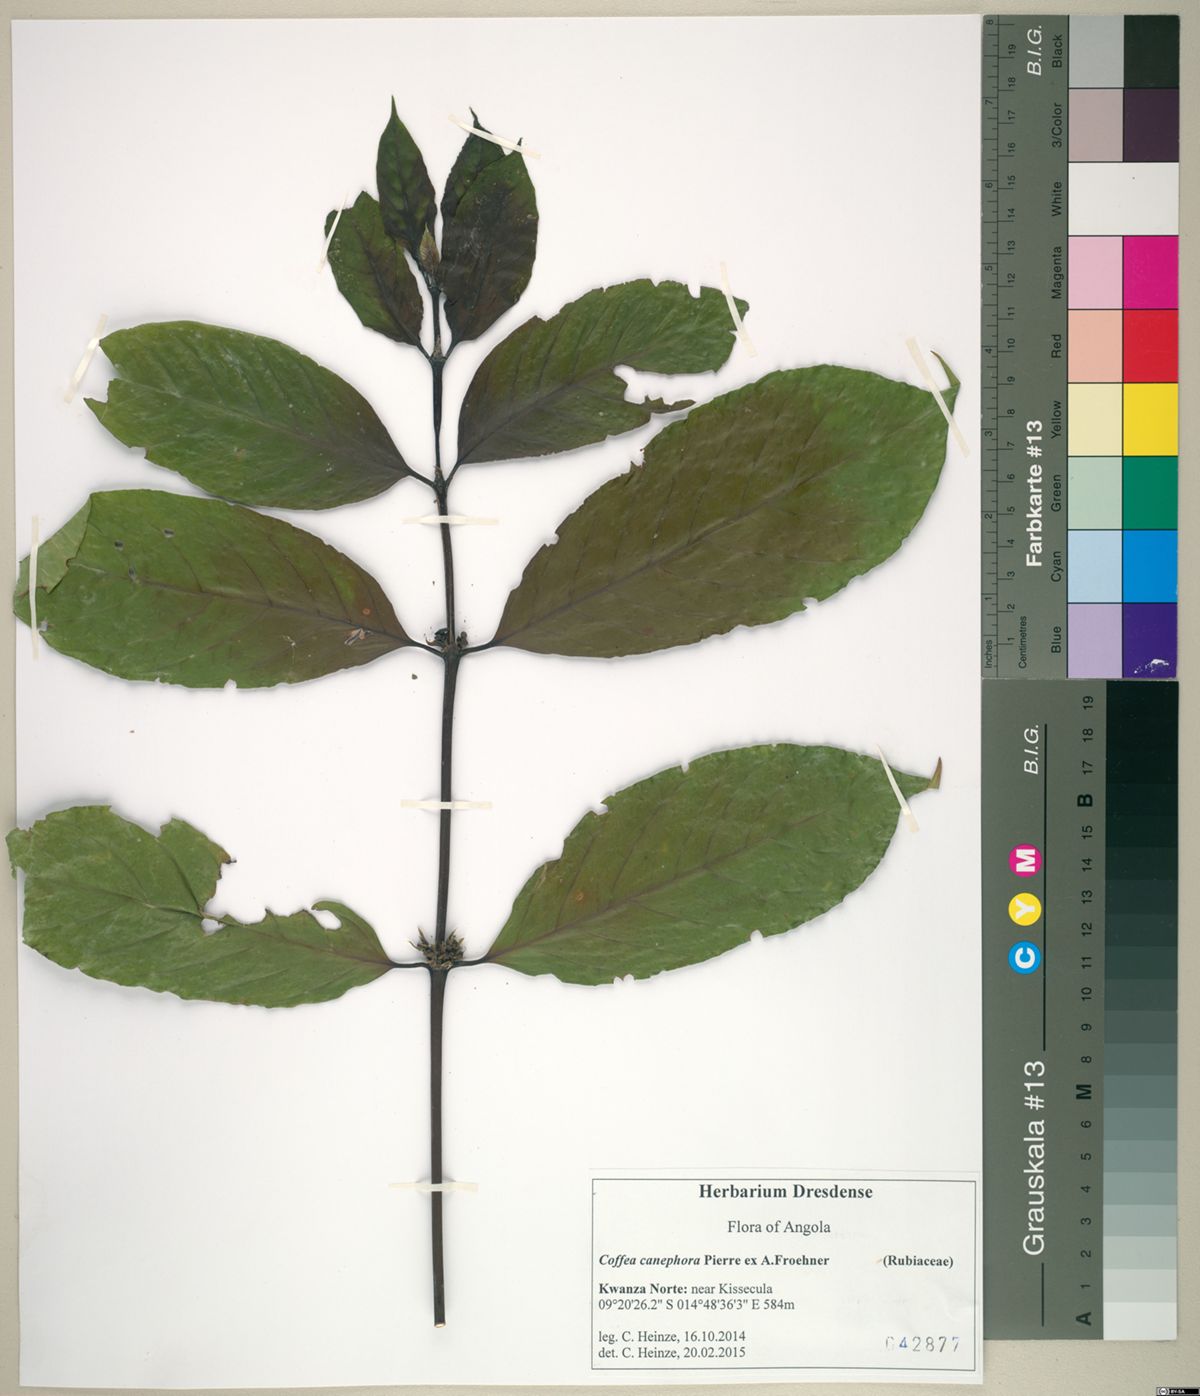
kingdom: Plantae
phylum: Tracheophyta
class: Magnoliopsida
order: Gentianales
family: Rubiaceae
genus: Coffea
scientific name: Coffea canephora
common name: Robusta coffee
